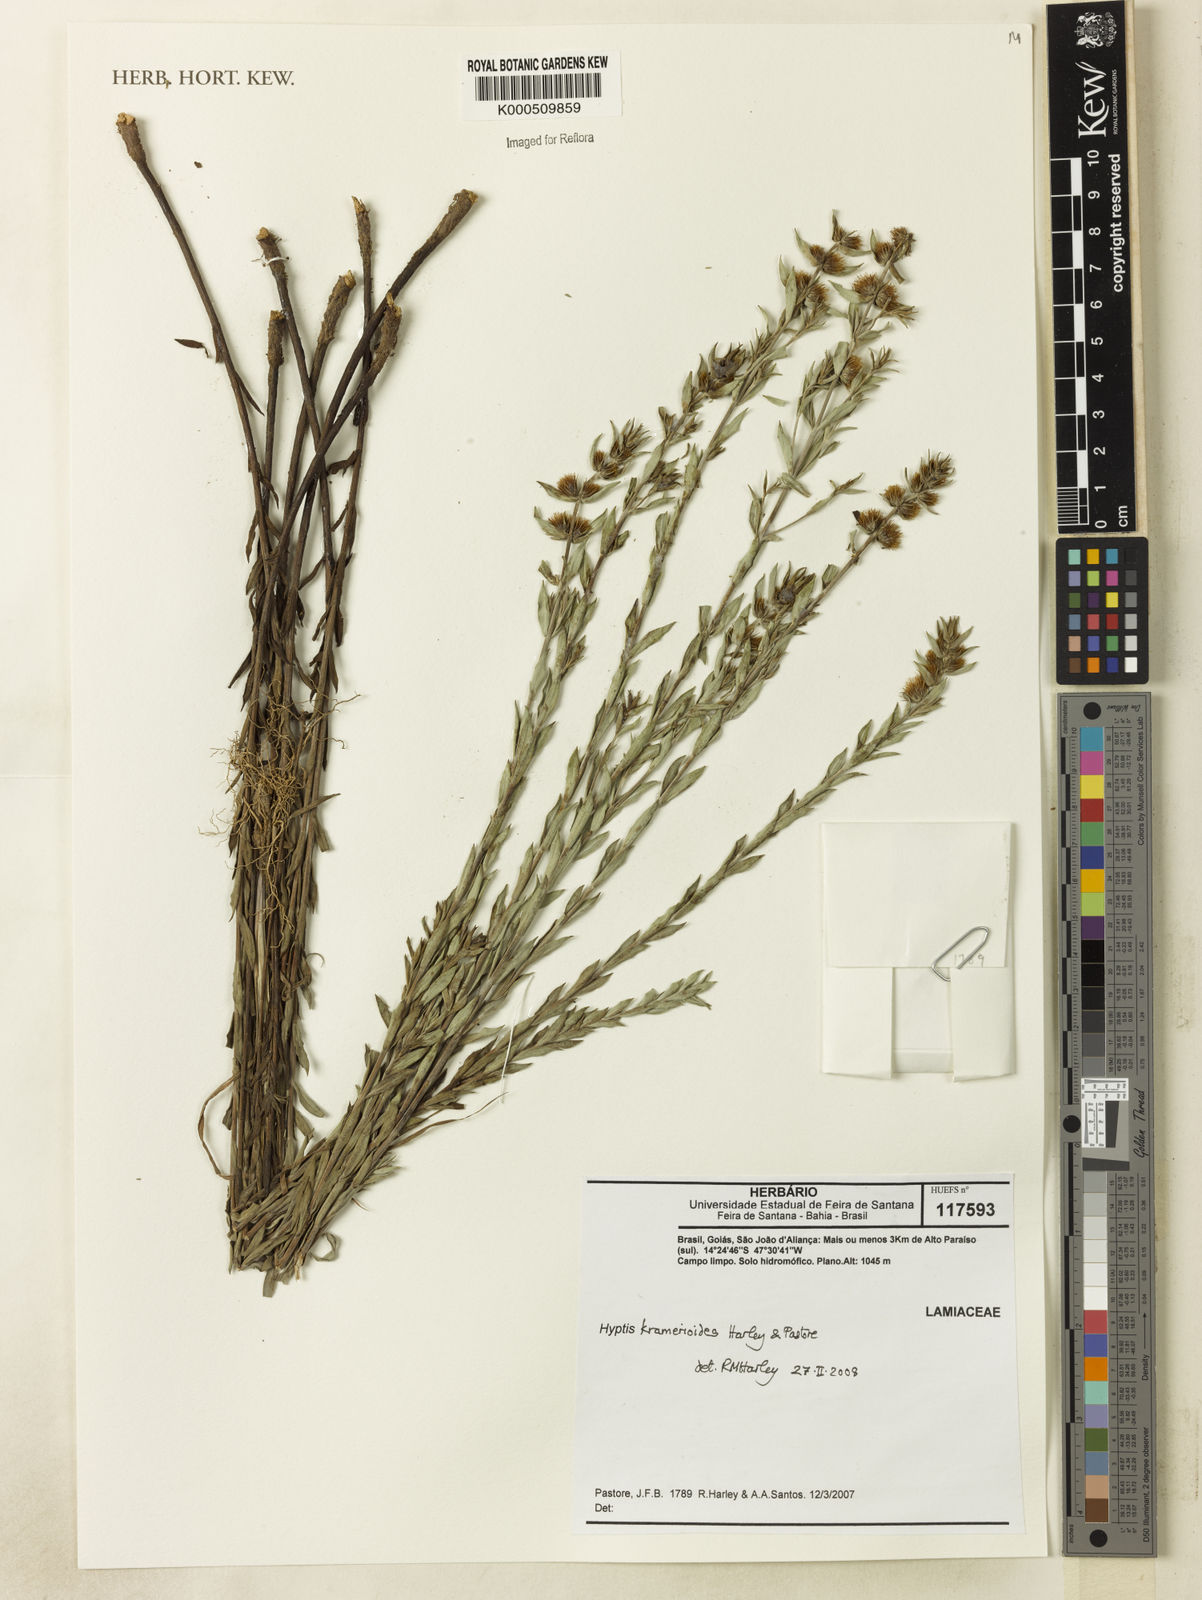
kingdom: Plantae
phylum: Tracheophyta
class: Magnoliopsida
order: Lamiales
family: Lamiaceae
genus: Hyptis
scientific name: Hyptis kramerioides
